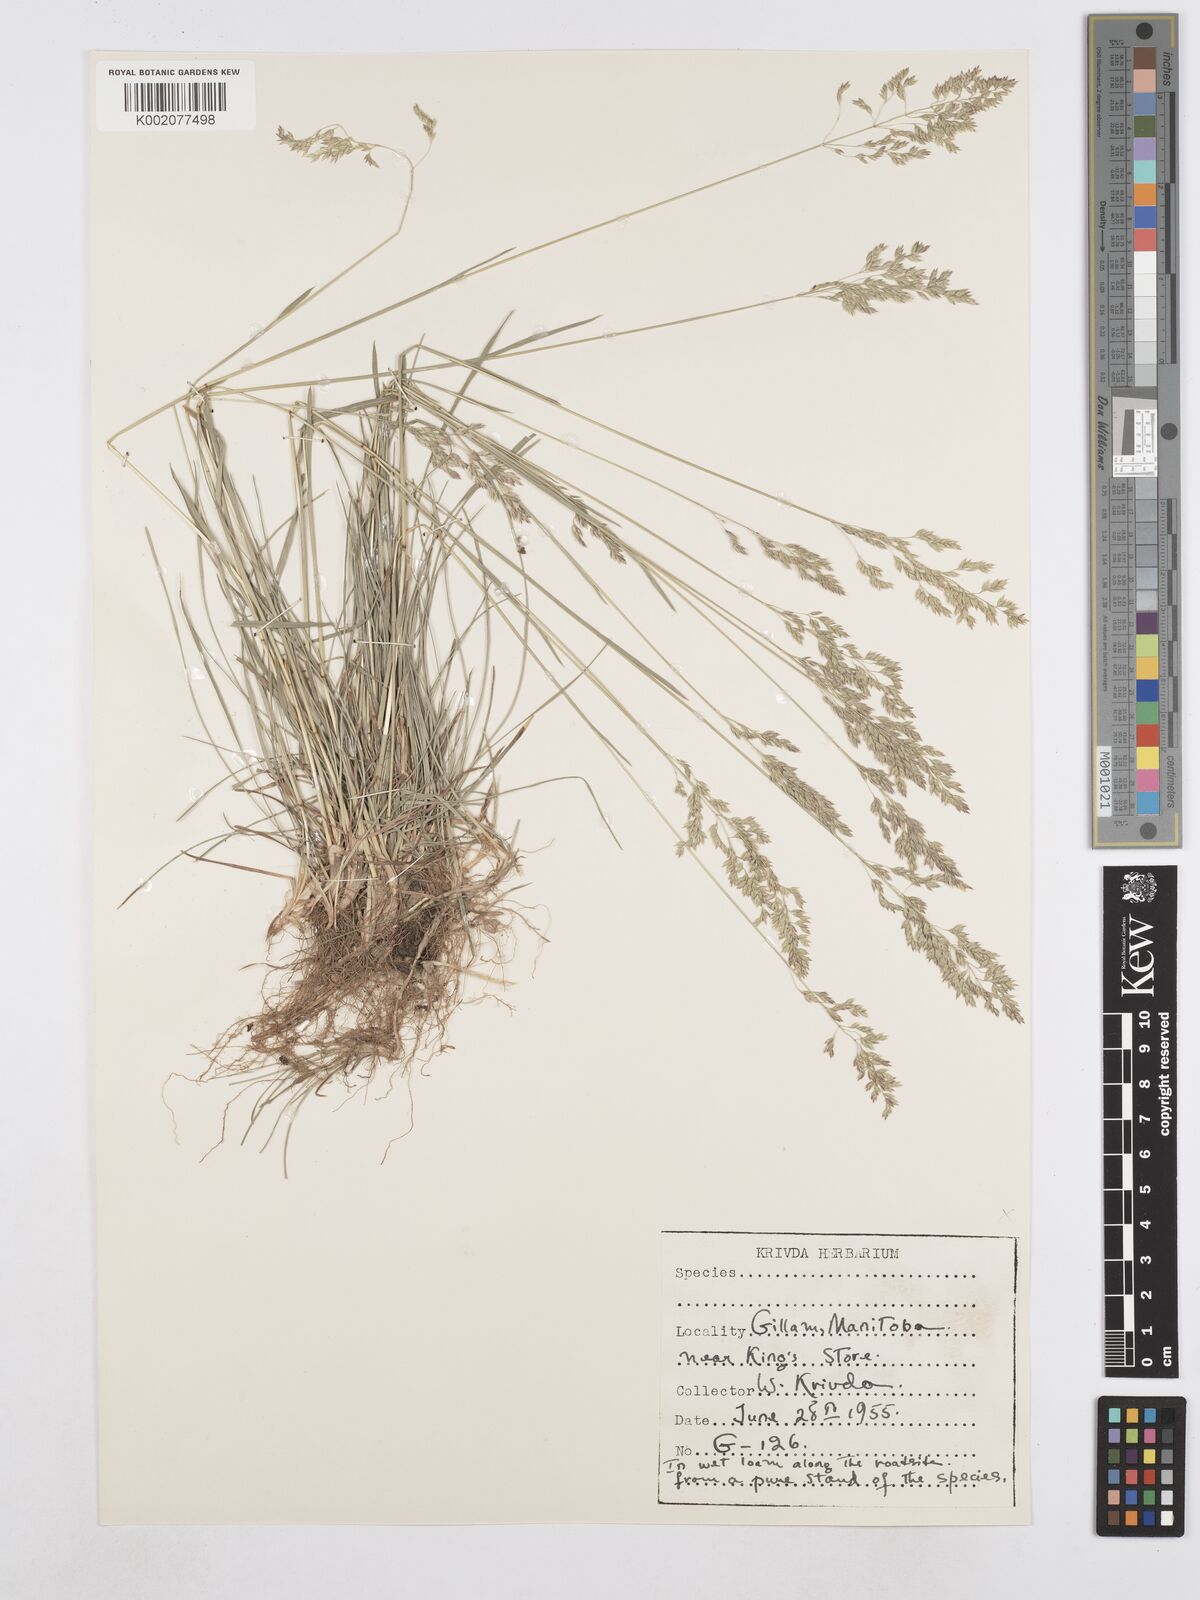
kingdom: Plantae
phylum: Tracheophyta
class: Liliopsida
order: Poales
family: Poaceae
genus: Poa
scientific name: Poa compressa
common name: Canada bluegrass
